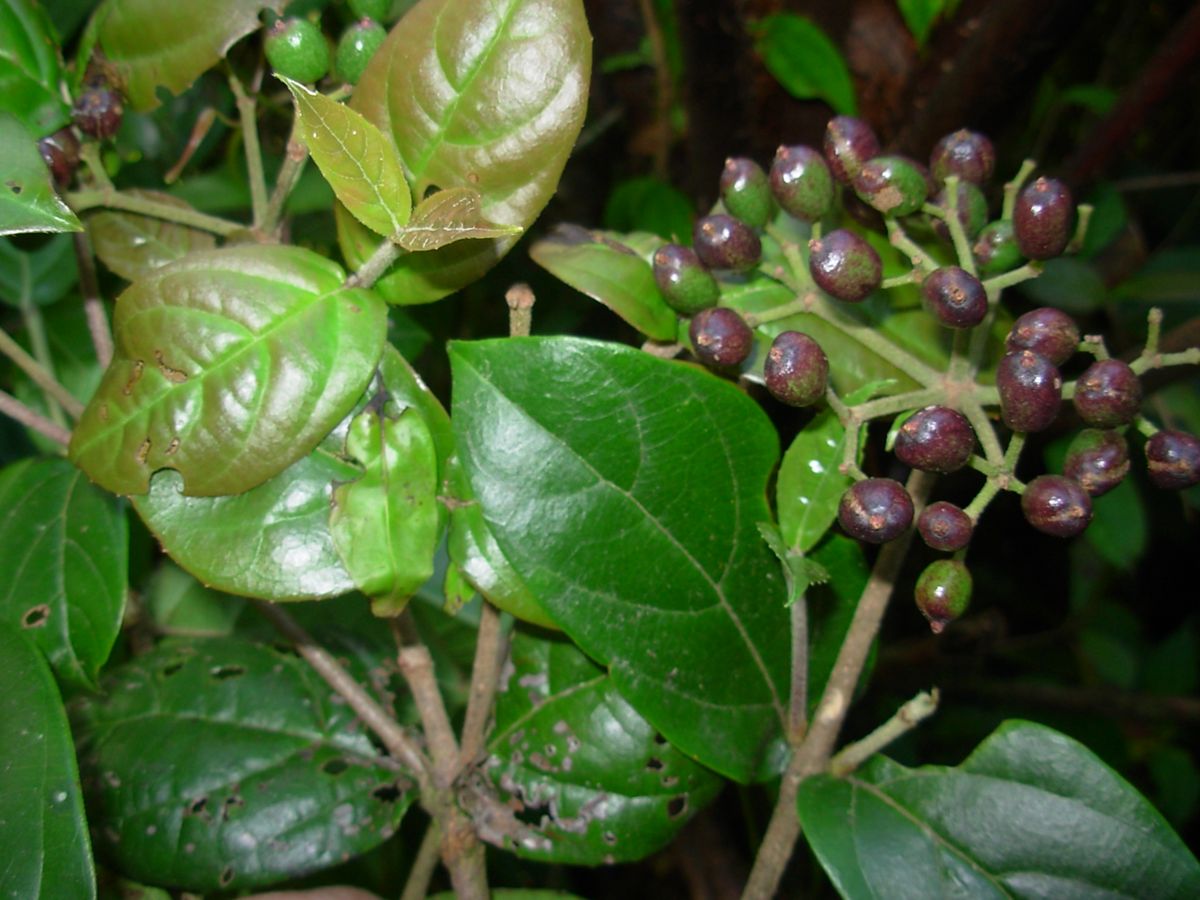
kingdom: Plantae
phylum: Tracheophyta
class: Magnoliopsida
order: Dipsacales
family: Viburnaceae
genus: Viburnum
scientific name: Viburnum
